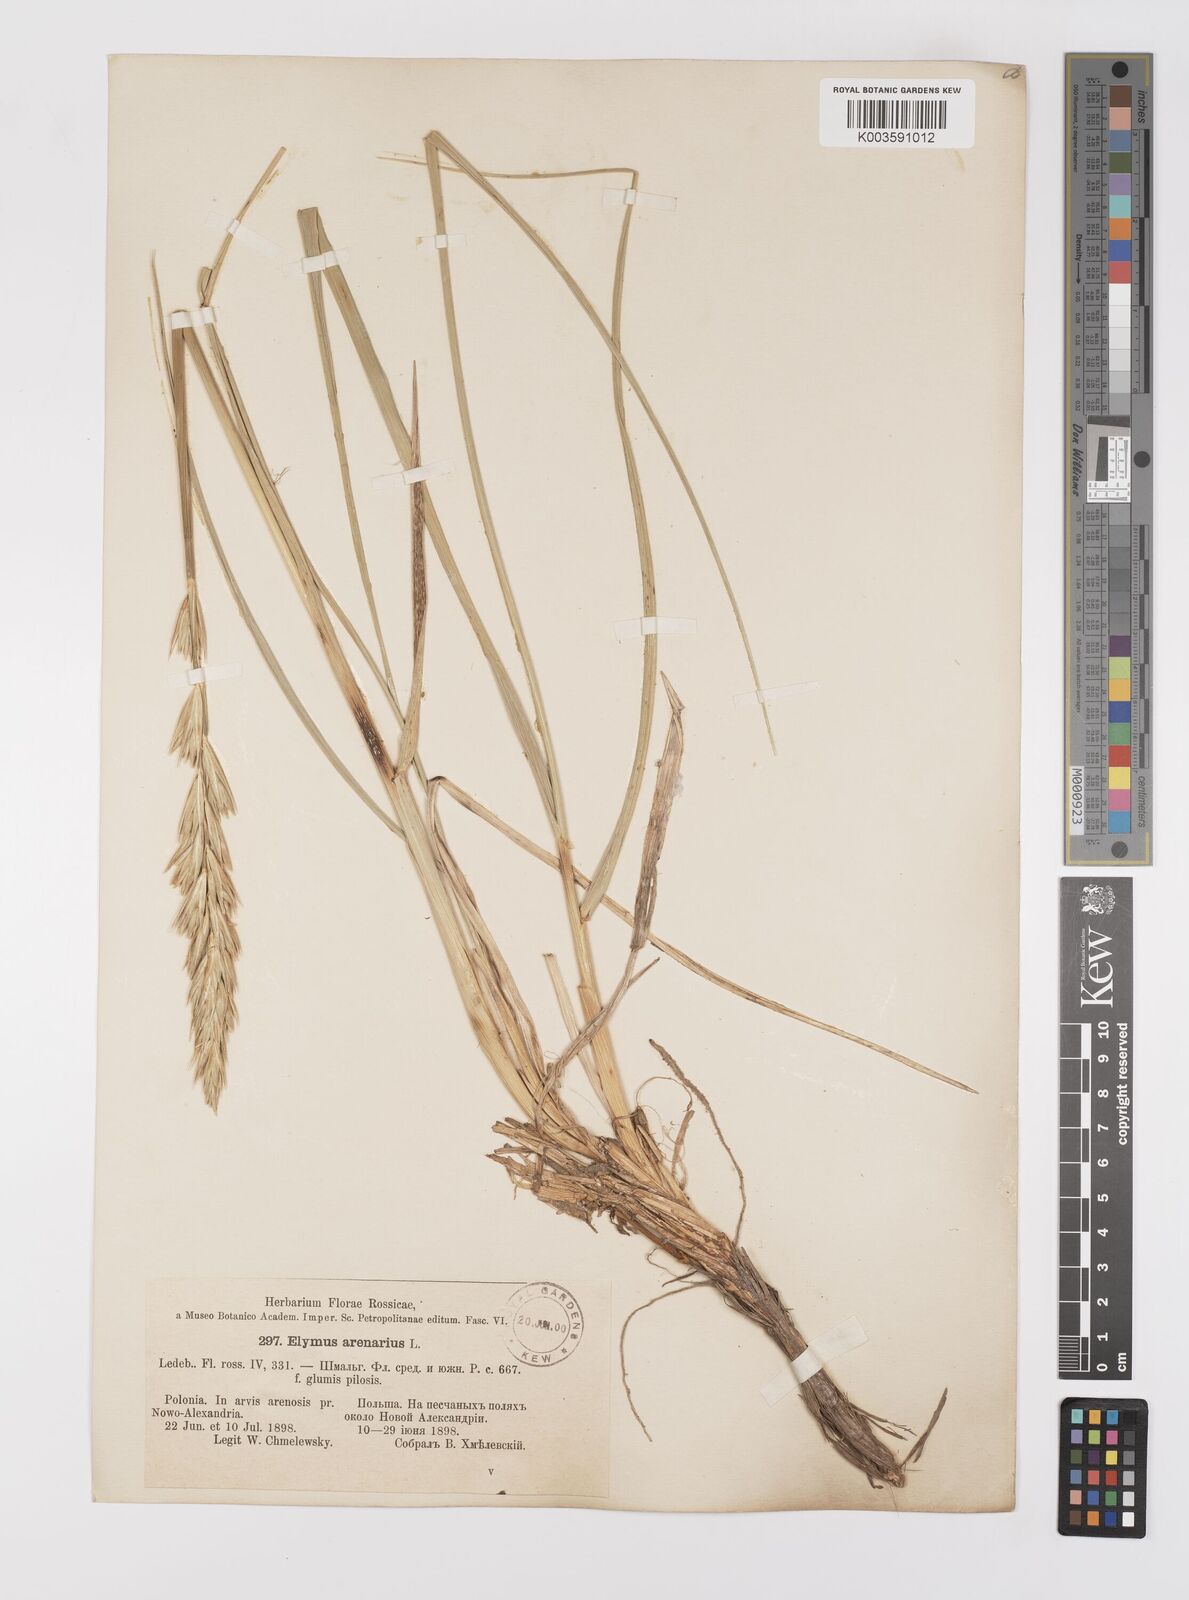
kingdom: Plantae
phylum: Tracheophyta
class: Liliopsida
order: Poales
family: Poaceae
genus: Leymus
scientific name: Leymus arenarius
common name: Lyme-grass
